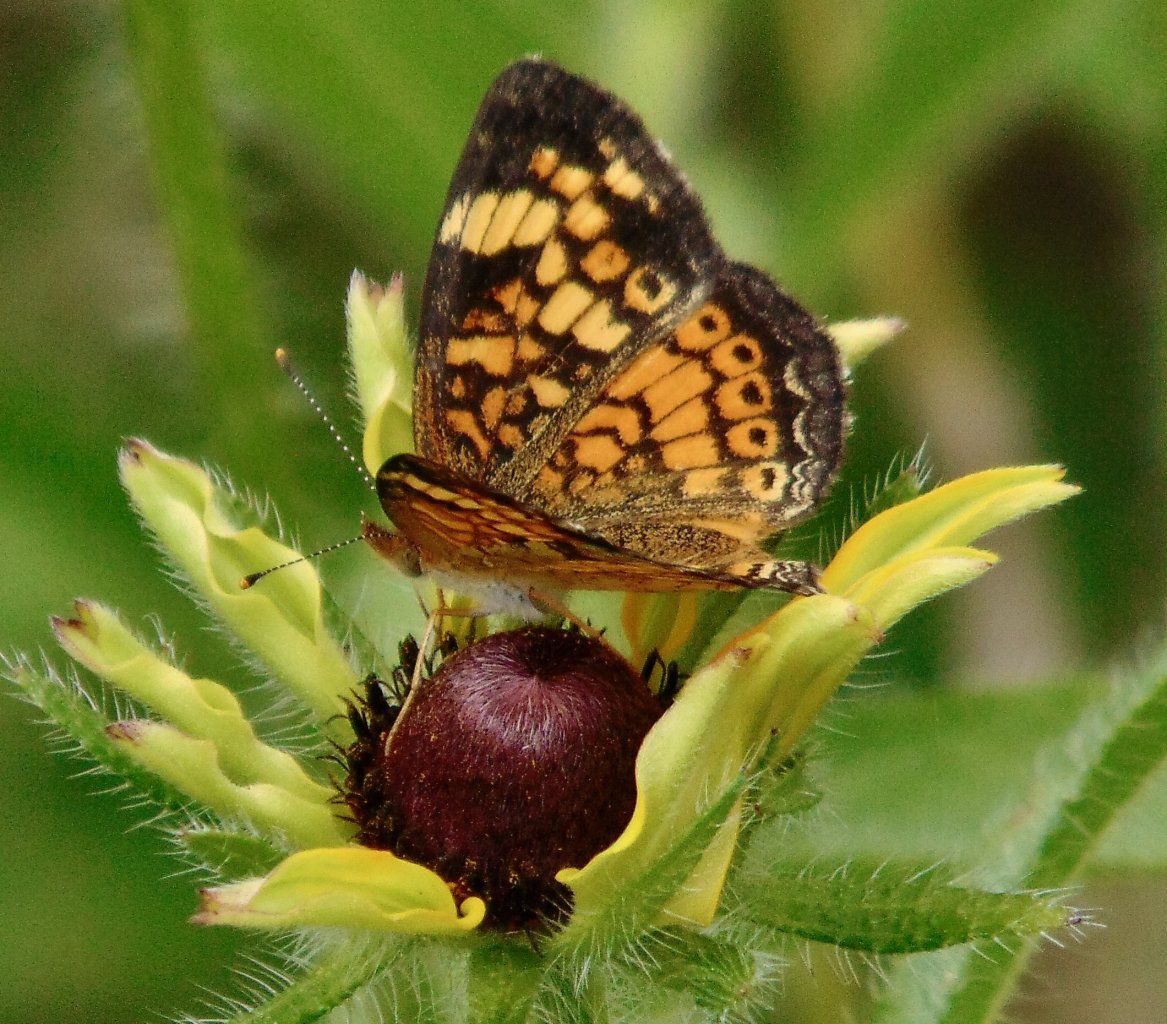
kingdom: Animalia
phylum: Arthropoda
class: Insecta
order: Lepidoptera
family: Nymphalidae
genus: Phyciodes
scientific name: Phyciodes tharos
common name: Pearl Crescent
